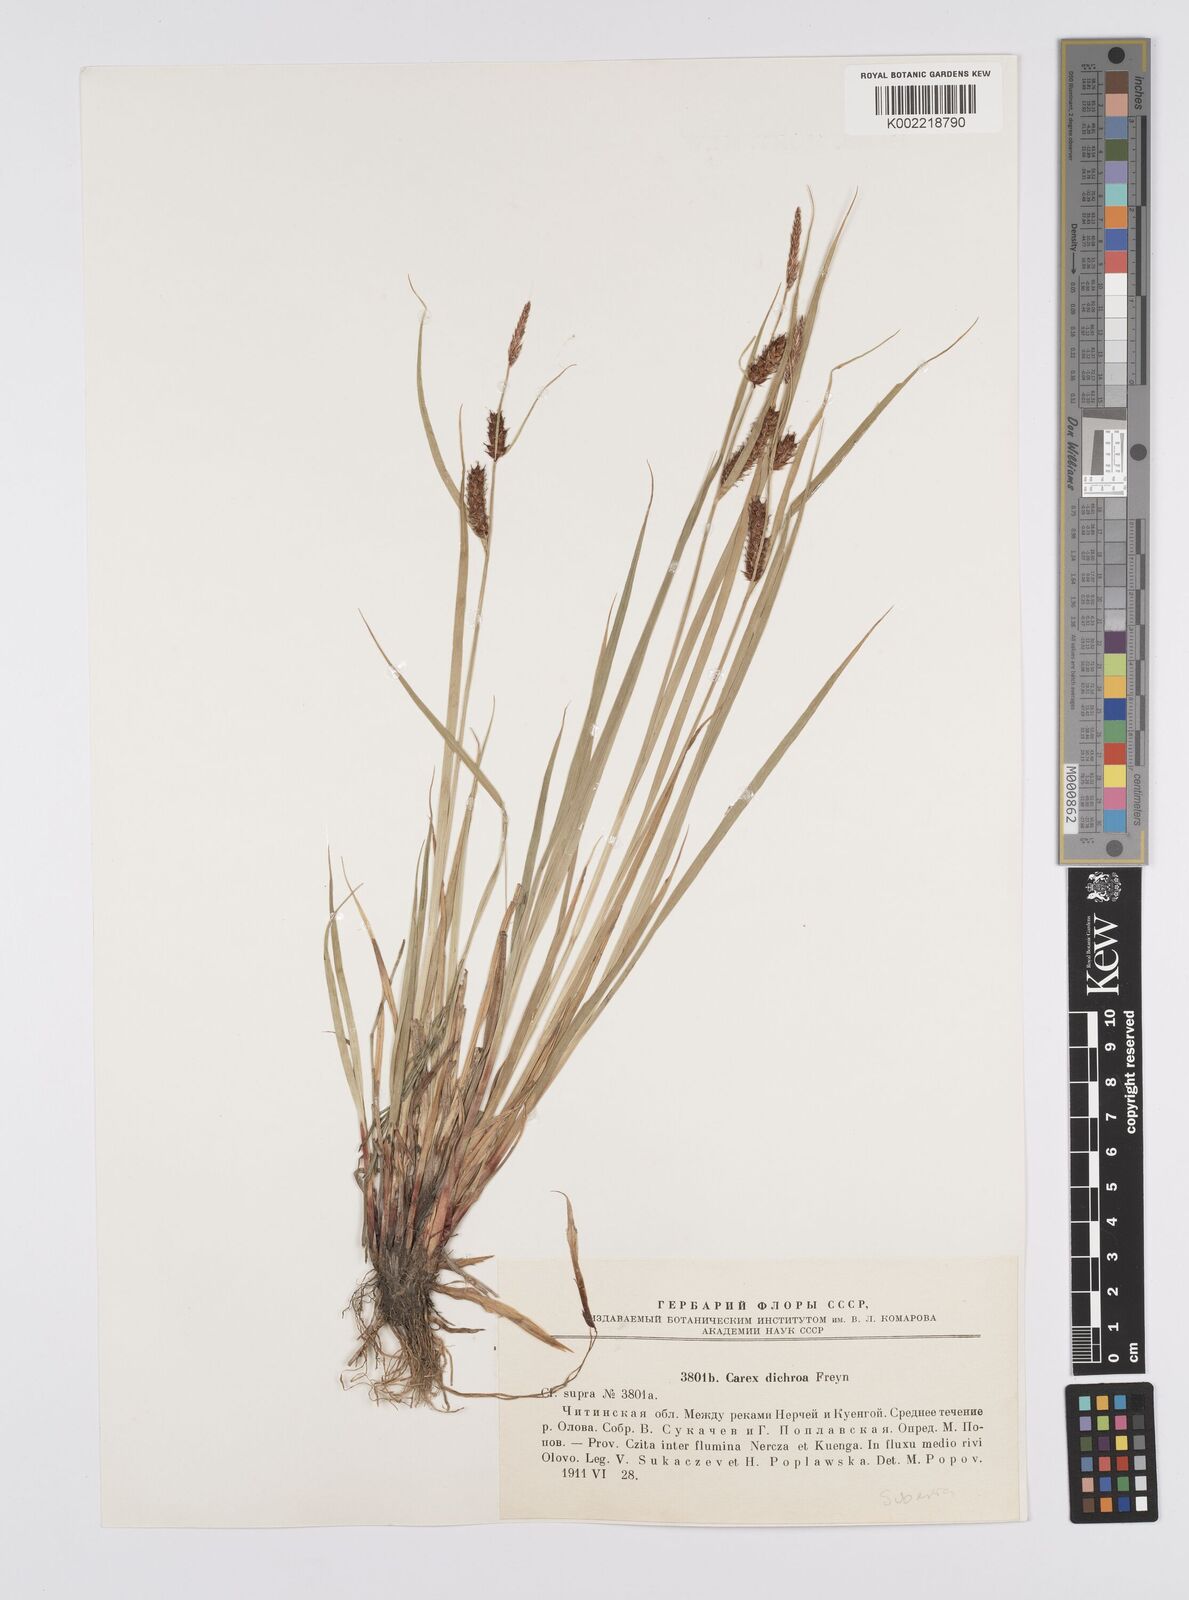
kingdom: Plantae
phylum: Tracheophyta
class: Liliopsida
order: Poales
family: Cyperaceae
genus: Carex
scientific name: Carex
